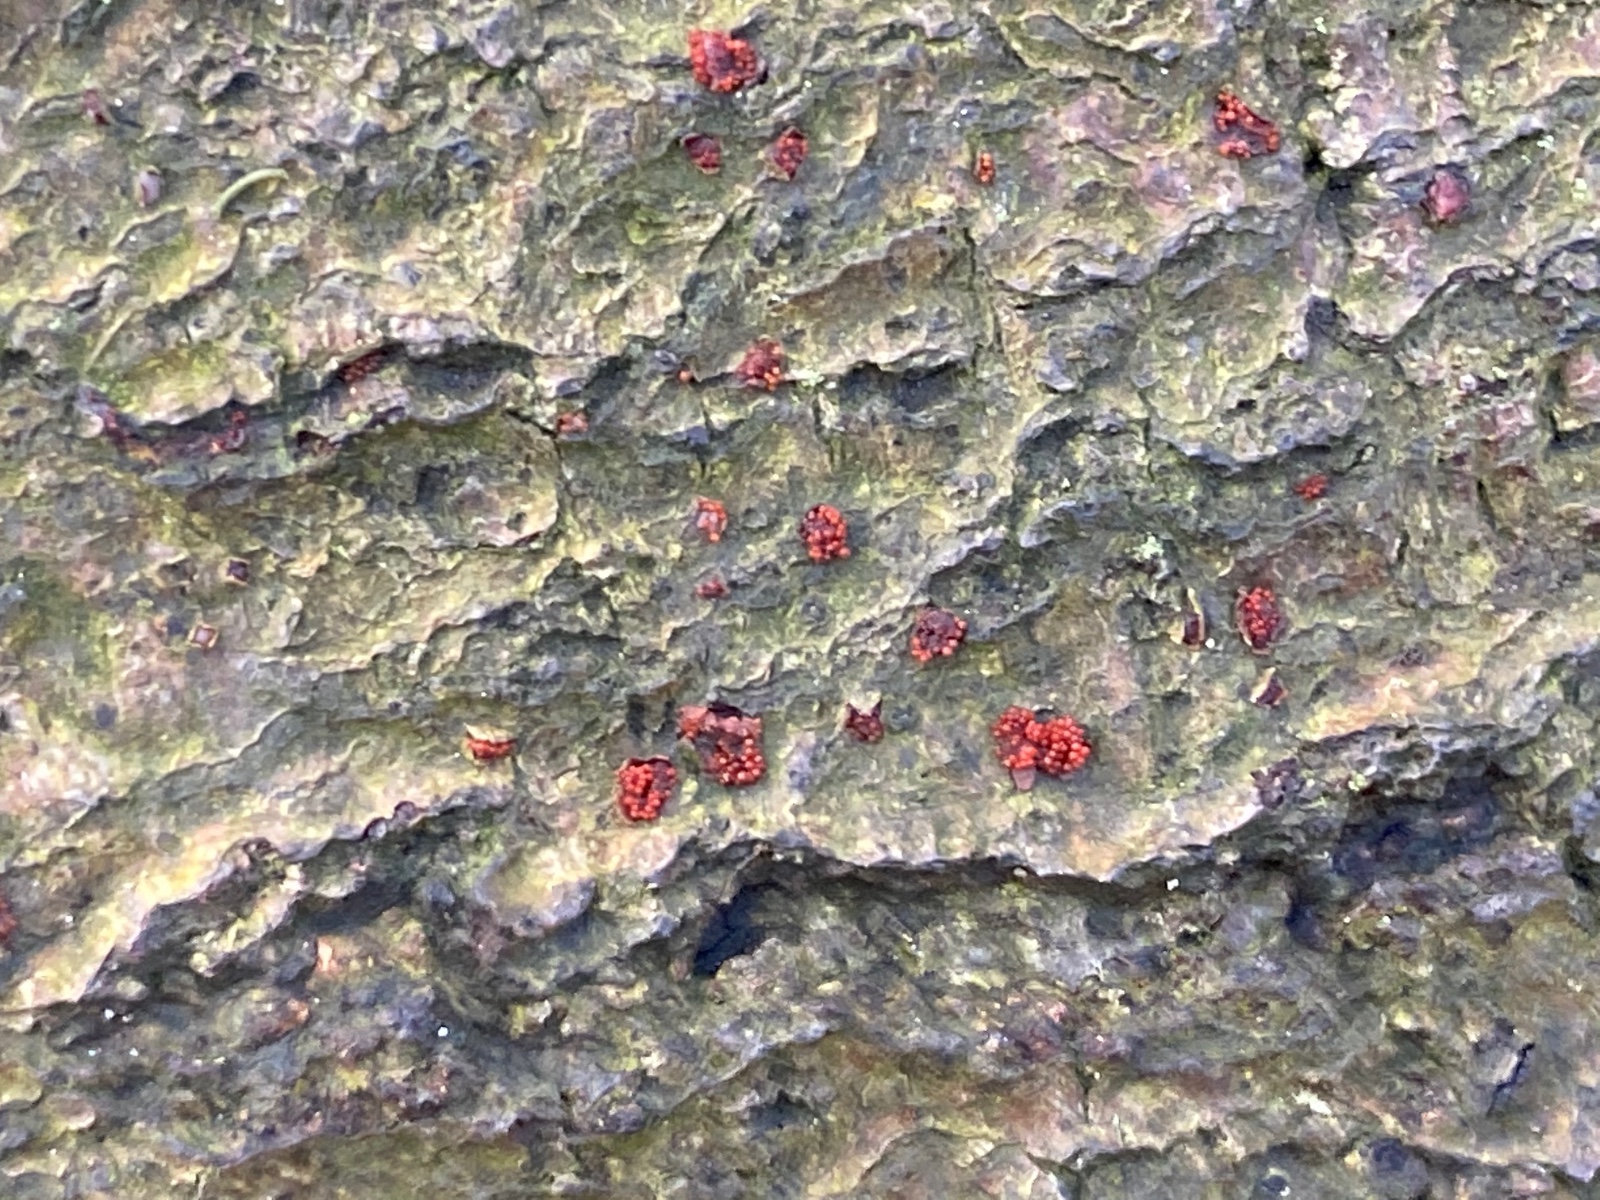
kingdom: Fungi
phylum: Ascomycota
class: Sordariomycetes
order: Hypocreales
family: Nectriaceae
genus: Neonectria
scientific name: Neonectria coccinea
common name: bøgebark-cinnobersvamp
